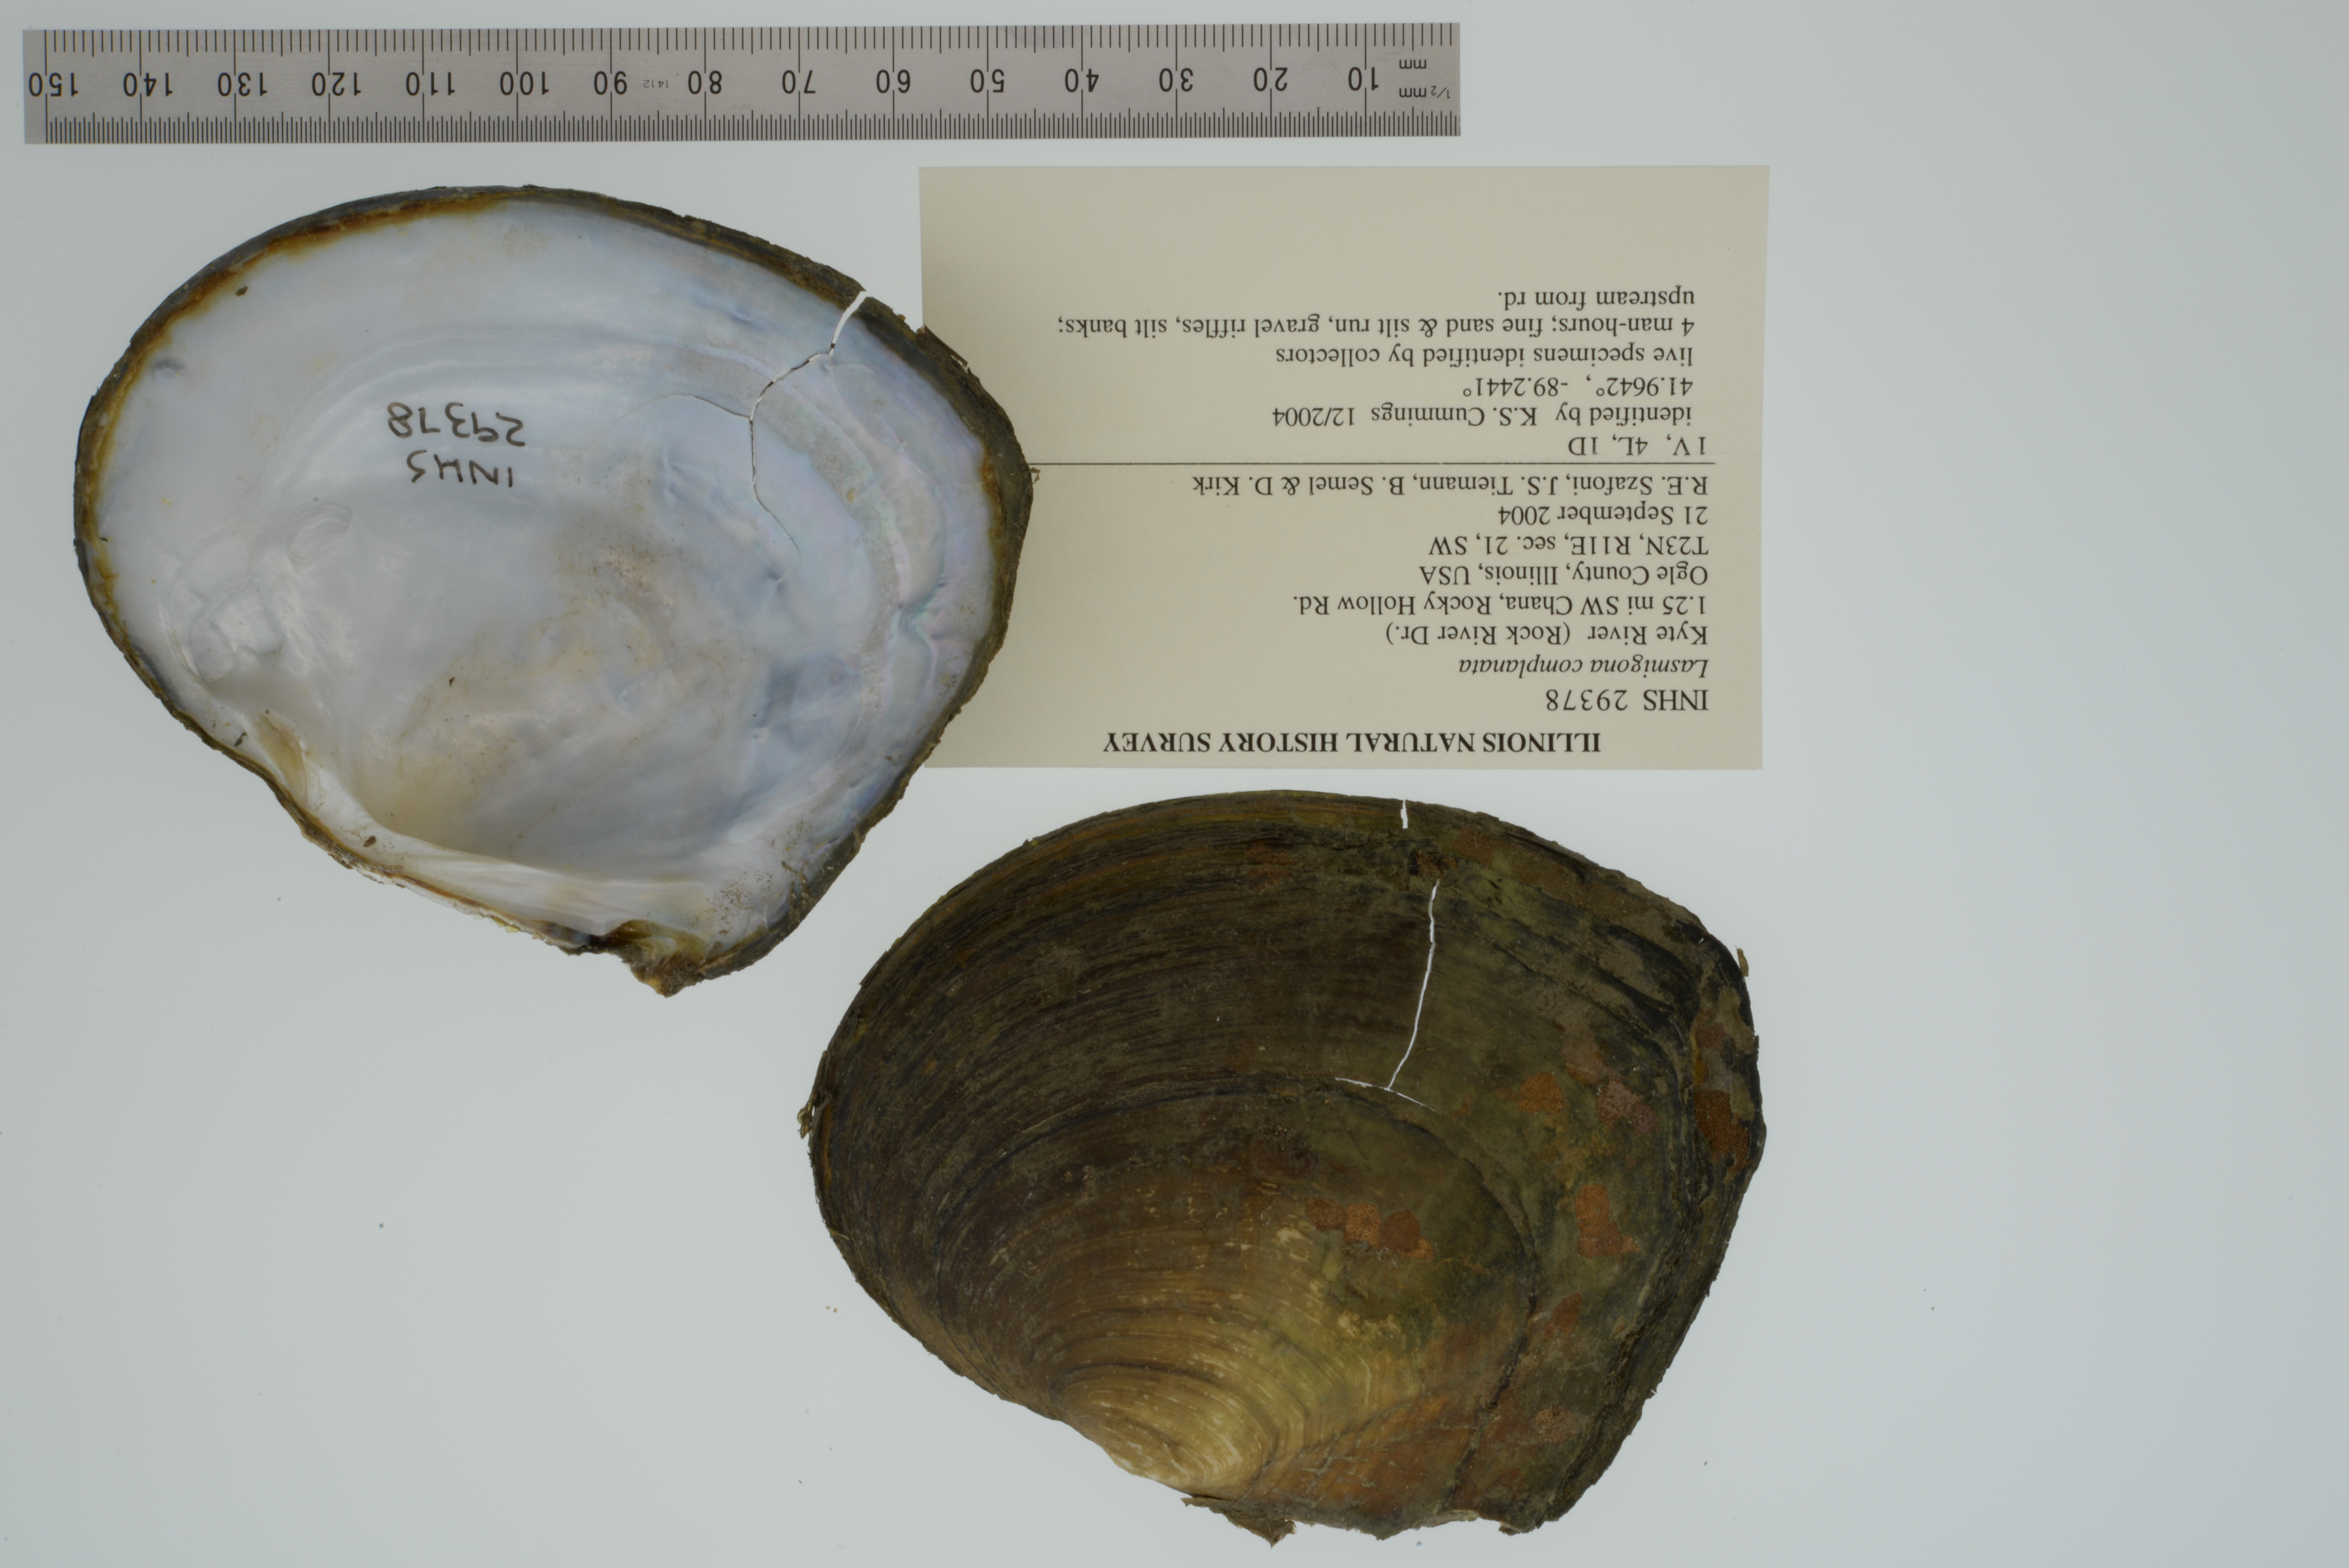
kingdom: Animalia
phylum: Mollusca
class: Bivalvia
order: Unionida
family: Unionidae
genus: Lasmigona
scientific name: Lasmigona complanata
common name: White heelsplitter
